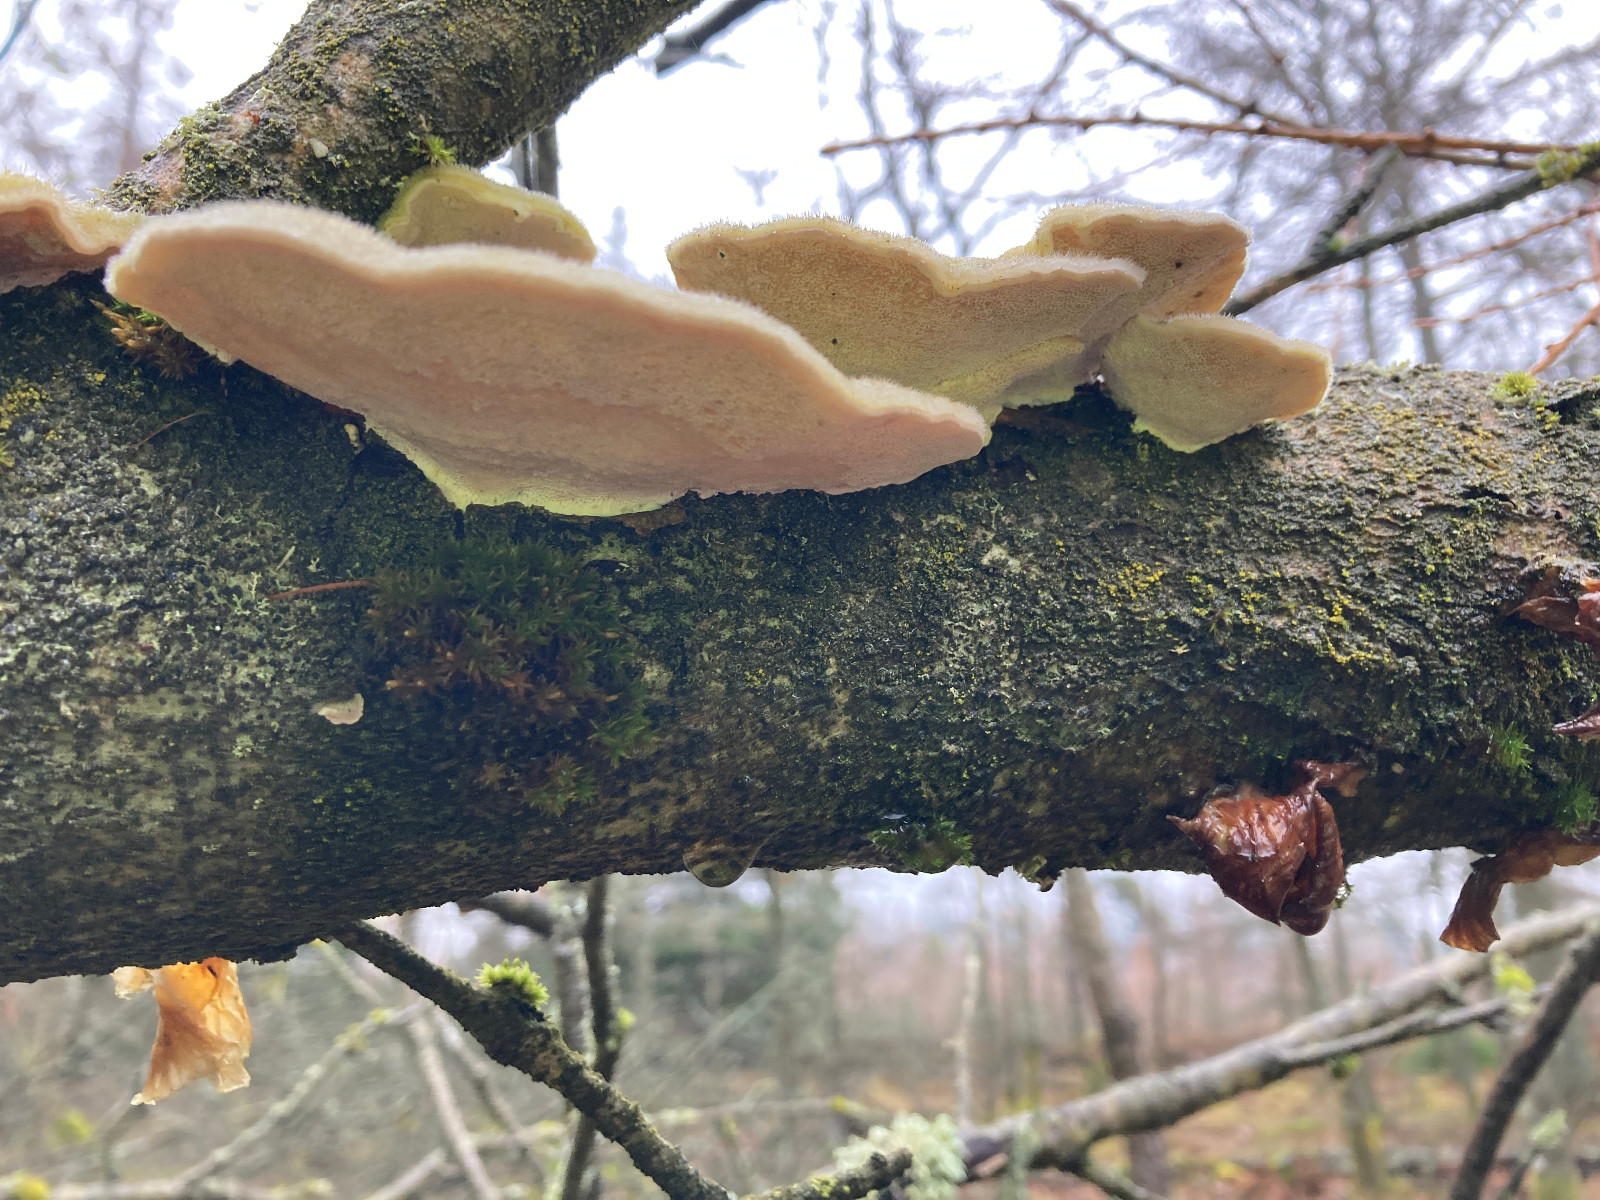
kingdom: Fungi
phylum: Basidiomycota
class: Agaricomycetes
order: Polyporales
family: Polyporaceae
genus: Trametes
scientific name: Trametes hirsuta
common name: håret læderporesvamp
